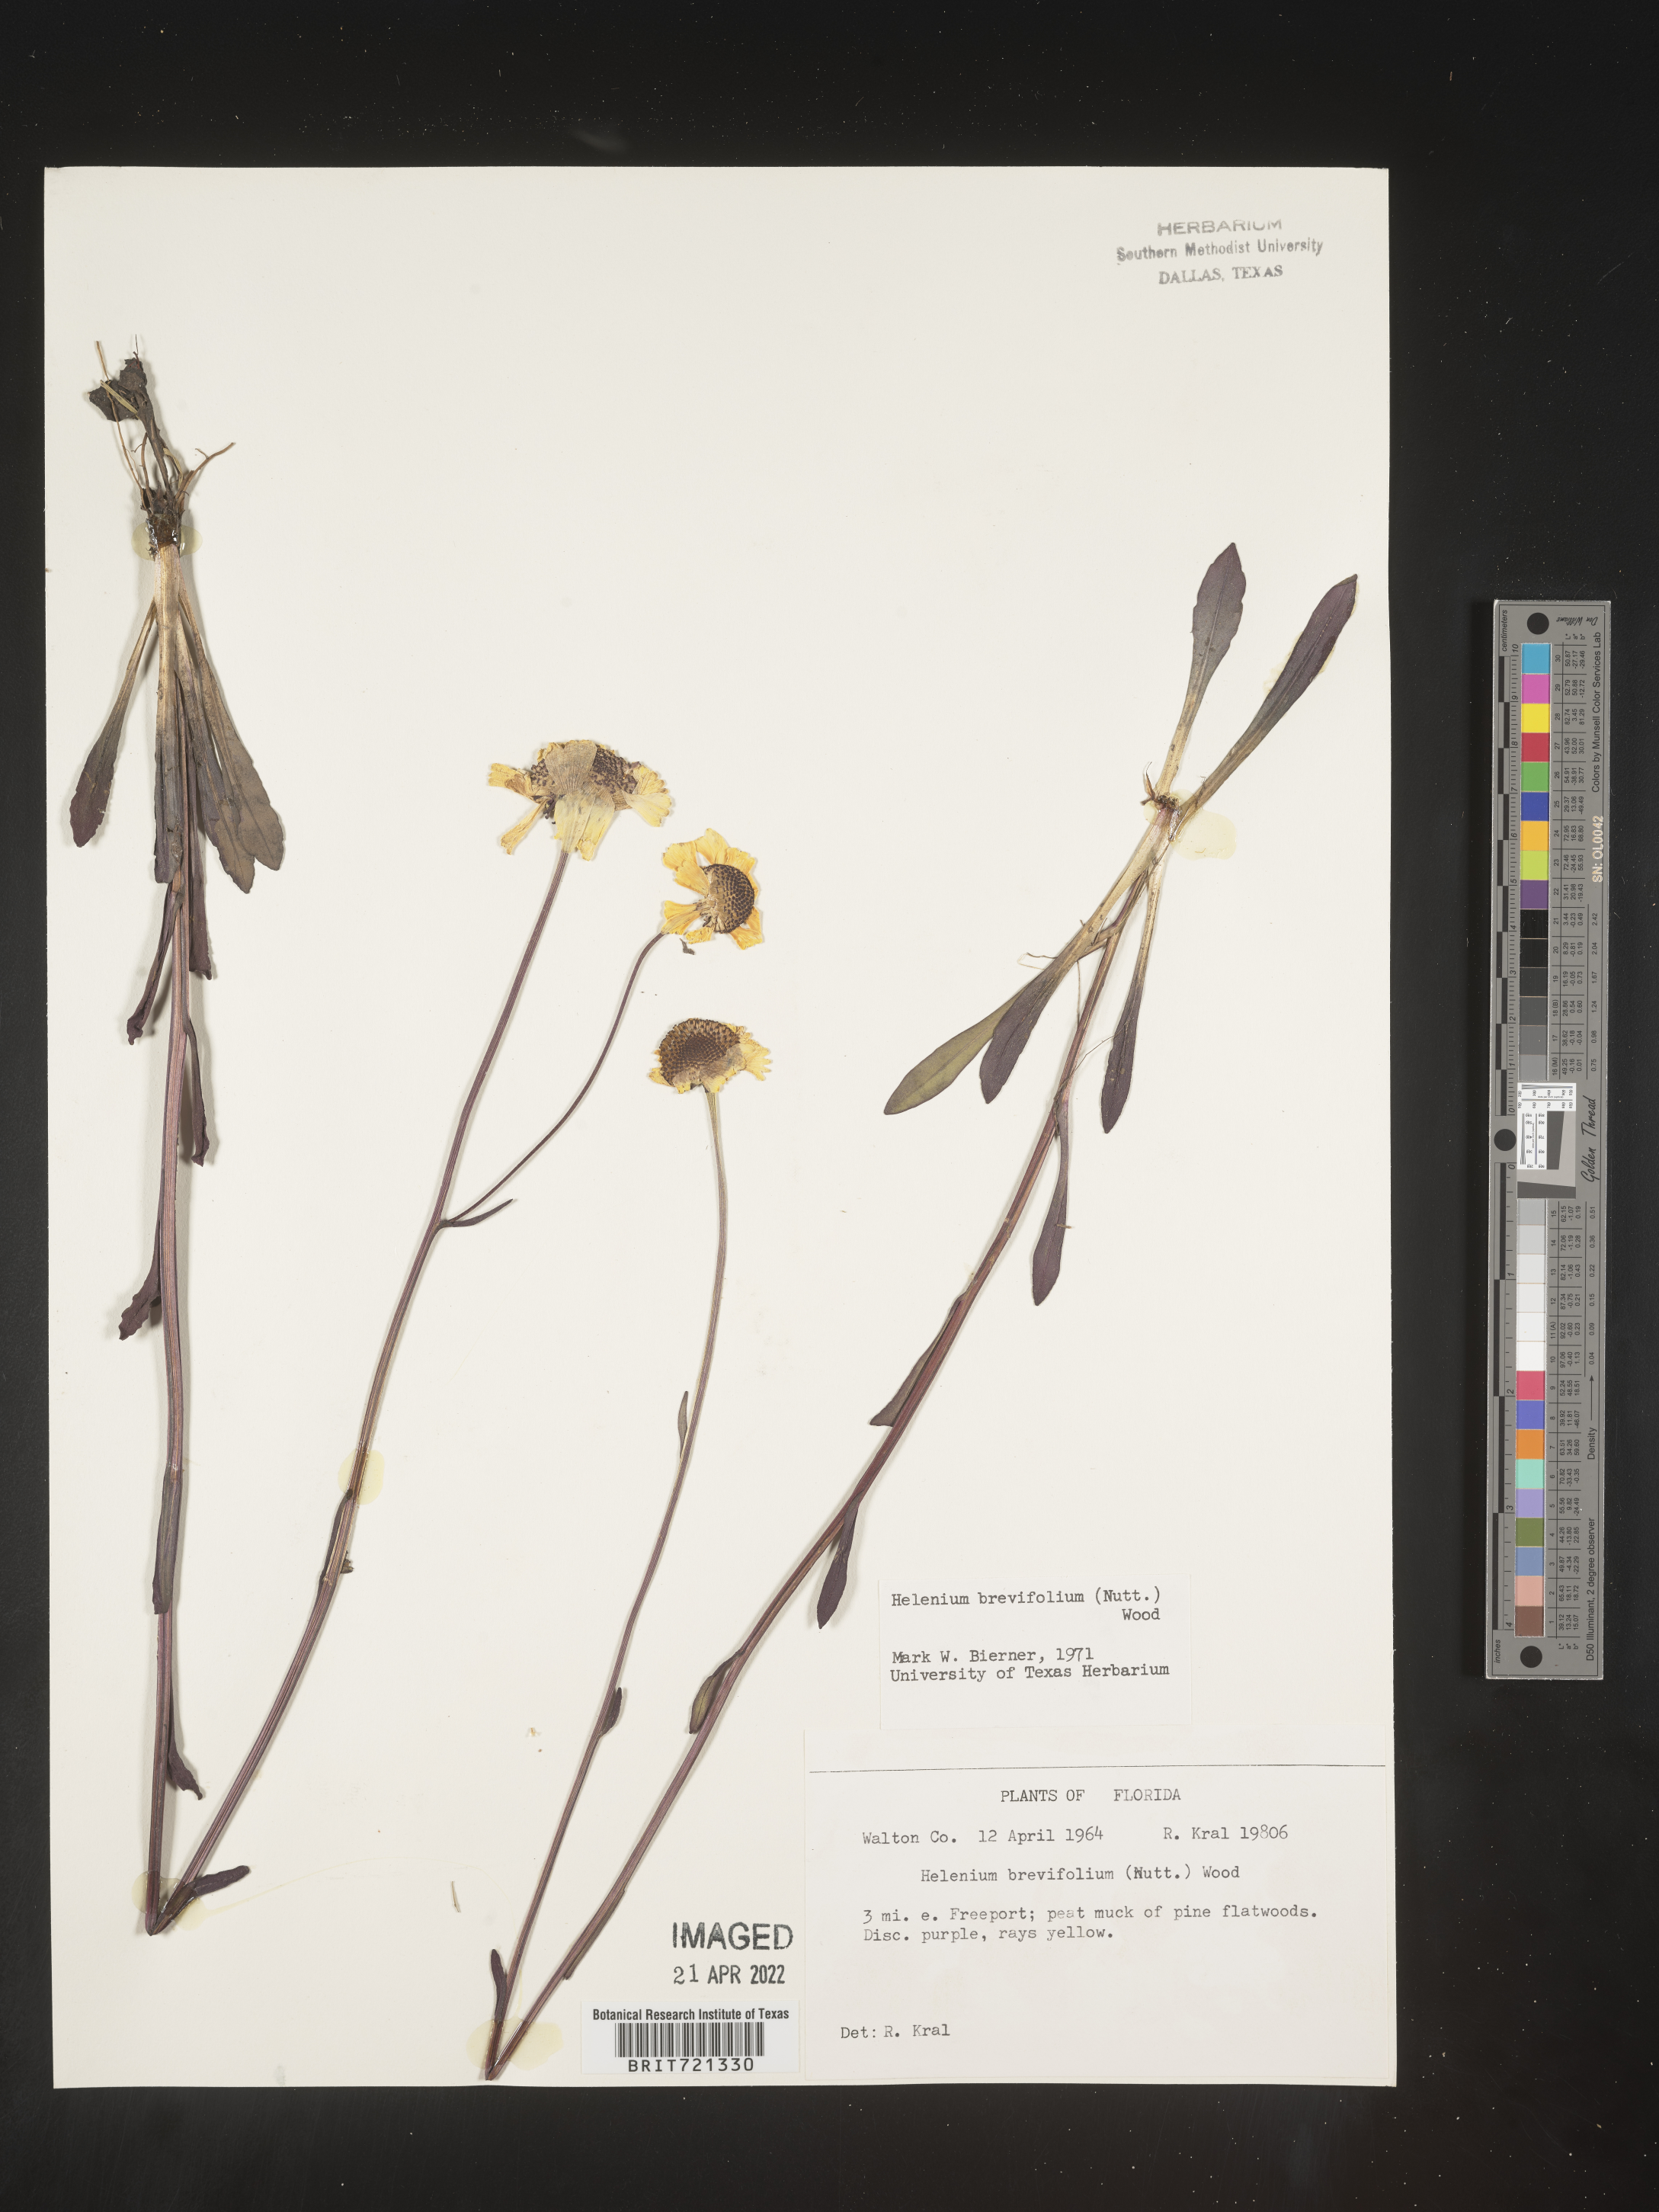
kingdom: Plantae
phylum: Tracheophyta
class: Magnoliopsida
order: Asterales
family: Asteraceae
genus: Helenium
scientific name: Helenium
